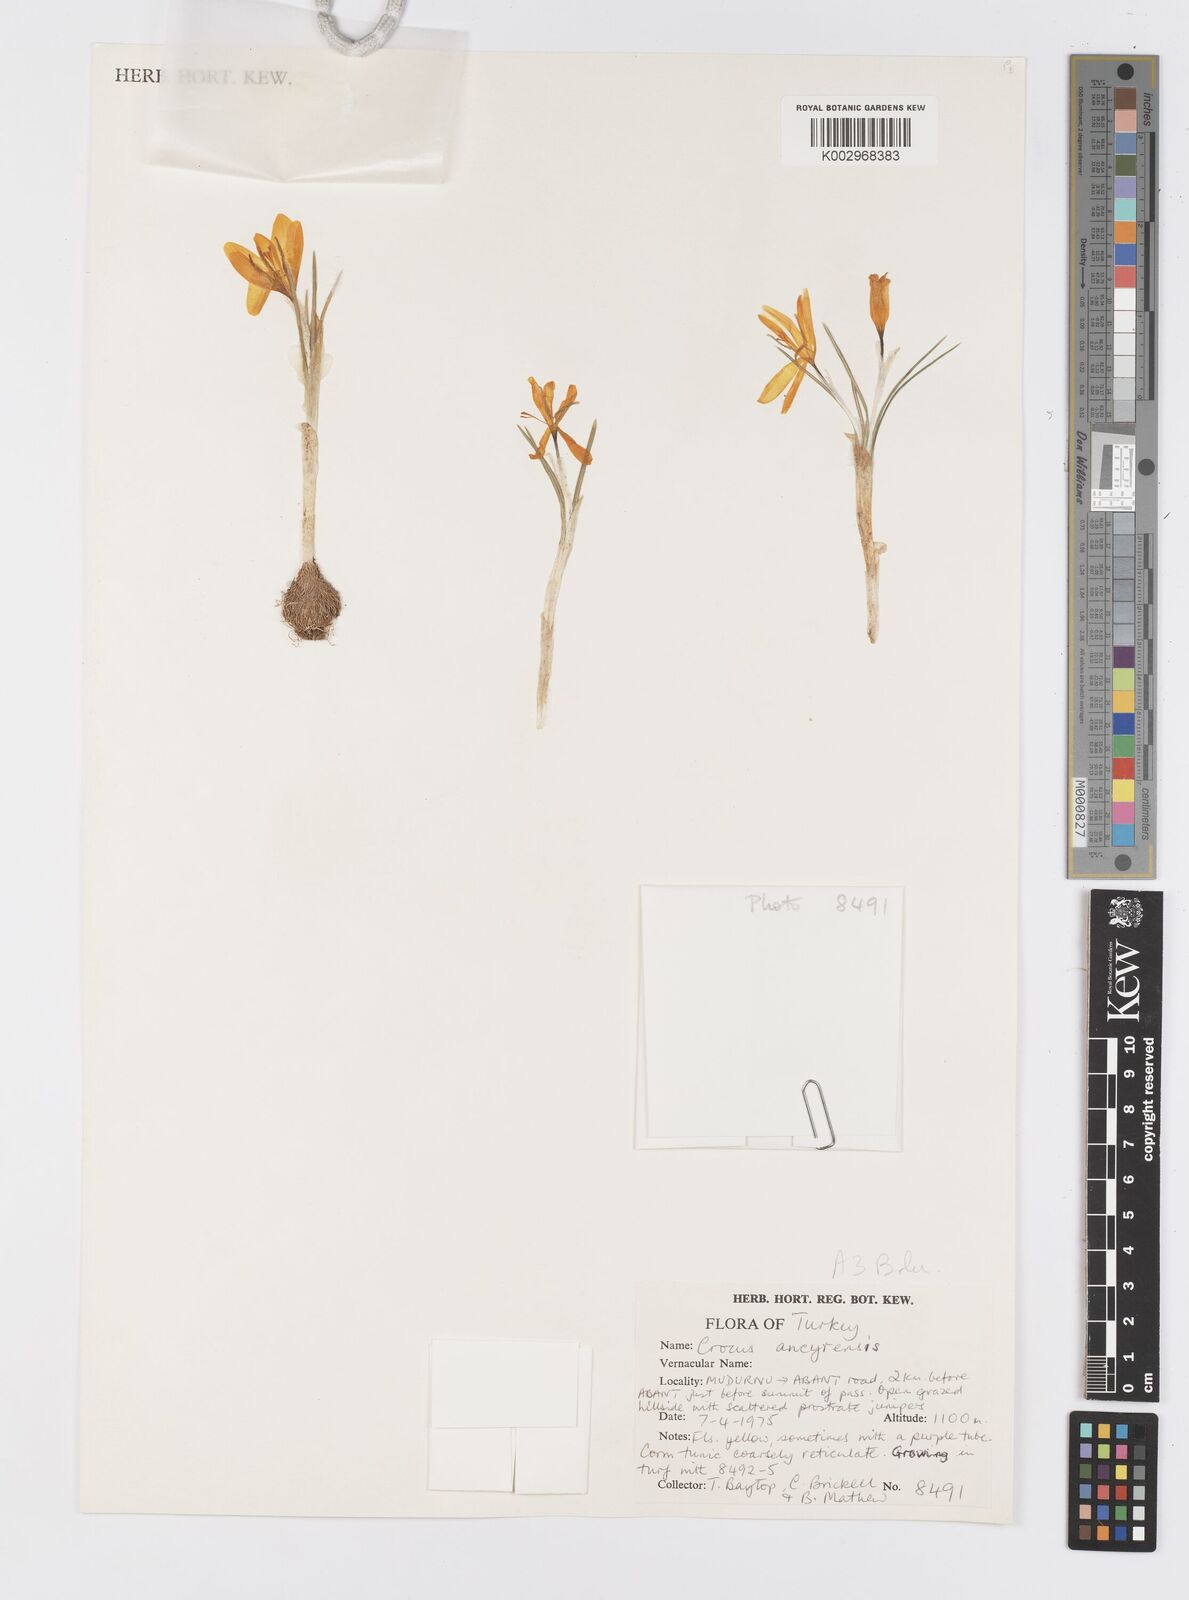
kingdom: Plantae
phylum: Tracheophyta
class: Liliopsida
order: Asparagales
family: Iridaceae
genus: Crocus
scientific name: Crocus ancyrensis
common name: Ankara crocus
